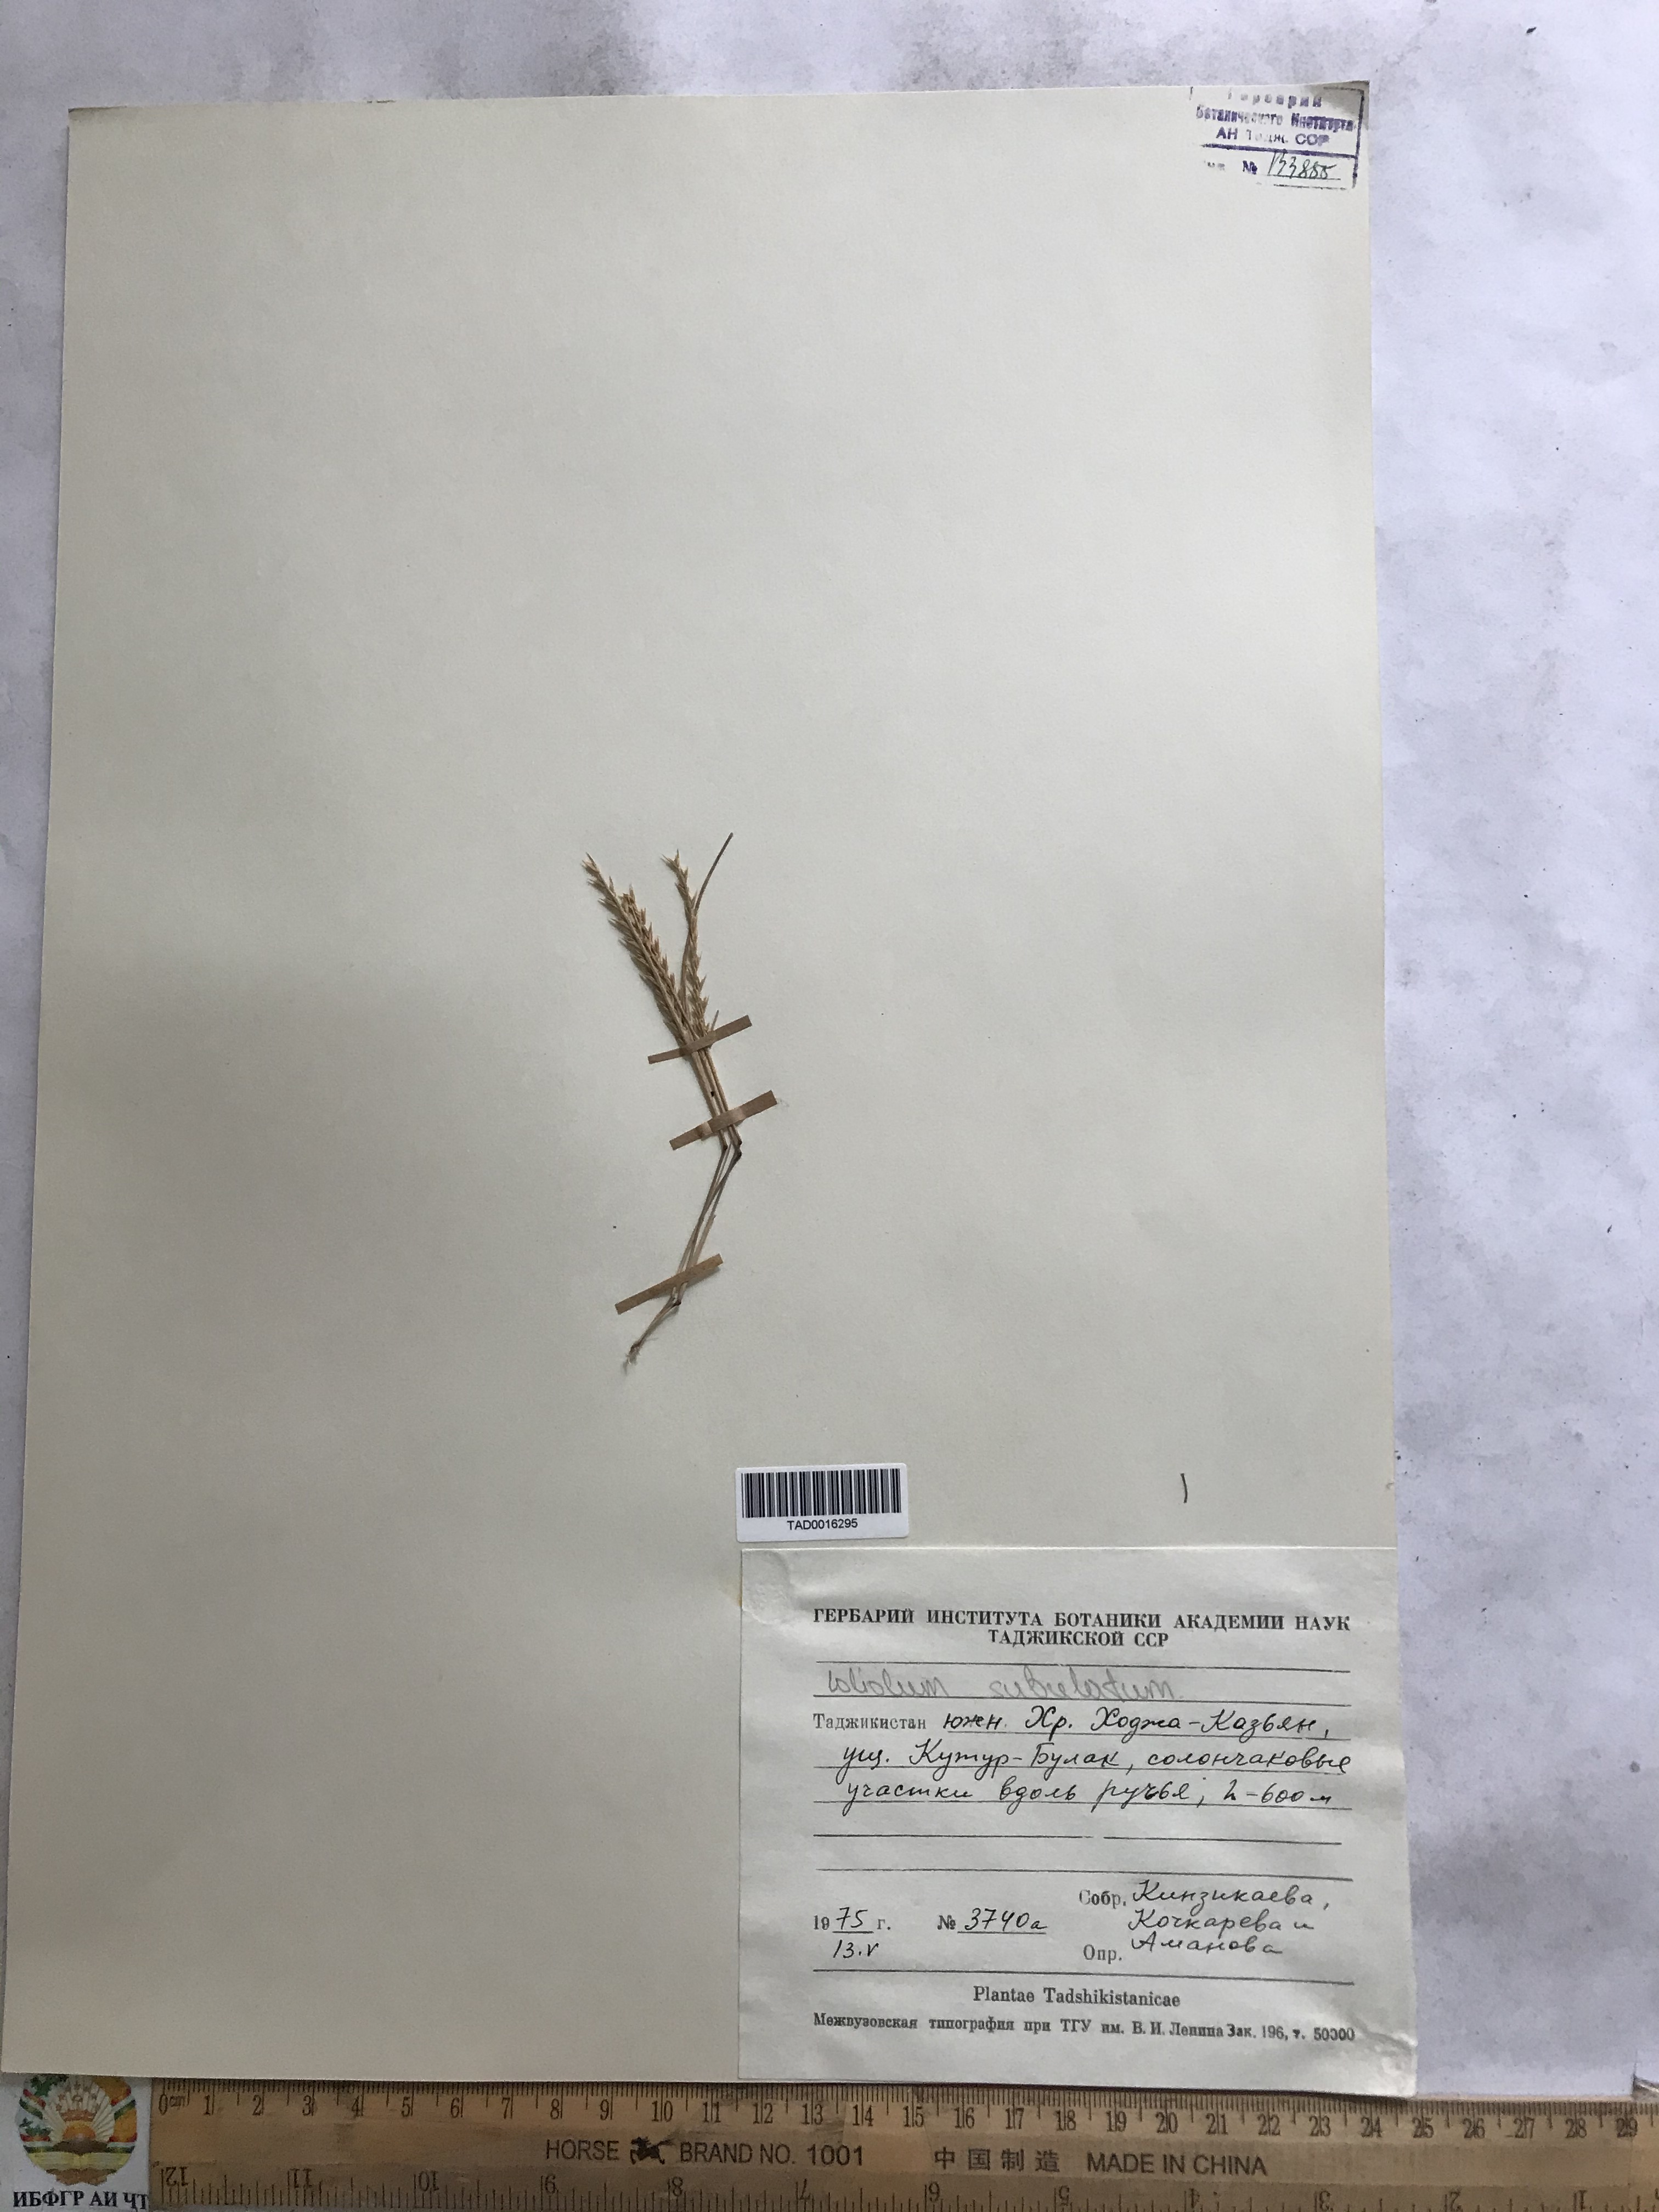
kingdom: Plantae
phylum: Tracheophyta
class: Liliopsida
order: Poales
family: Poaceae
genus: Festuca
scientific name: Festuca orientalis
